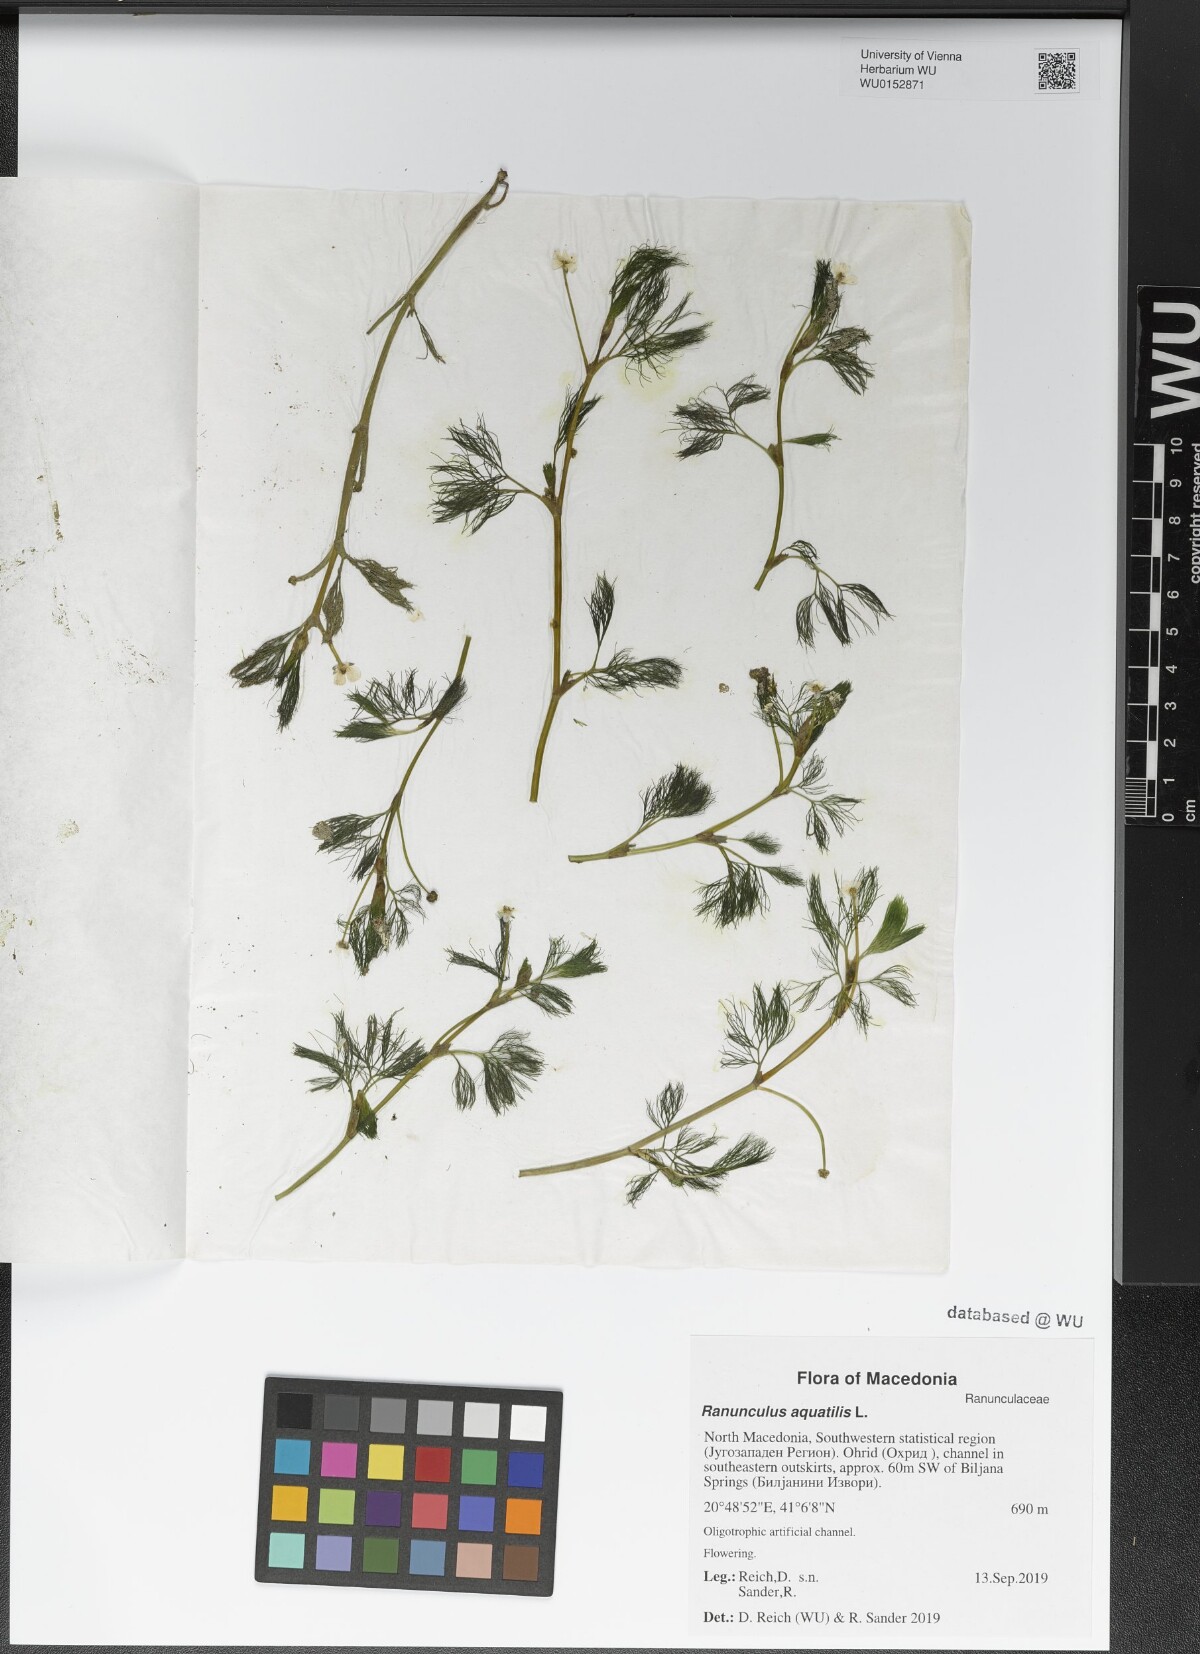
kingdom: Plantae
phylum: Tracheophyta
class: Magnoliopsida
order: Ranunculales
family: Ranunculaceae
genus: Ranunculus
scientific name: Ranunculus aquatilis
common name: Common water-crowfoot
